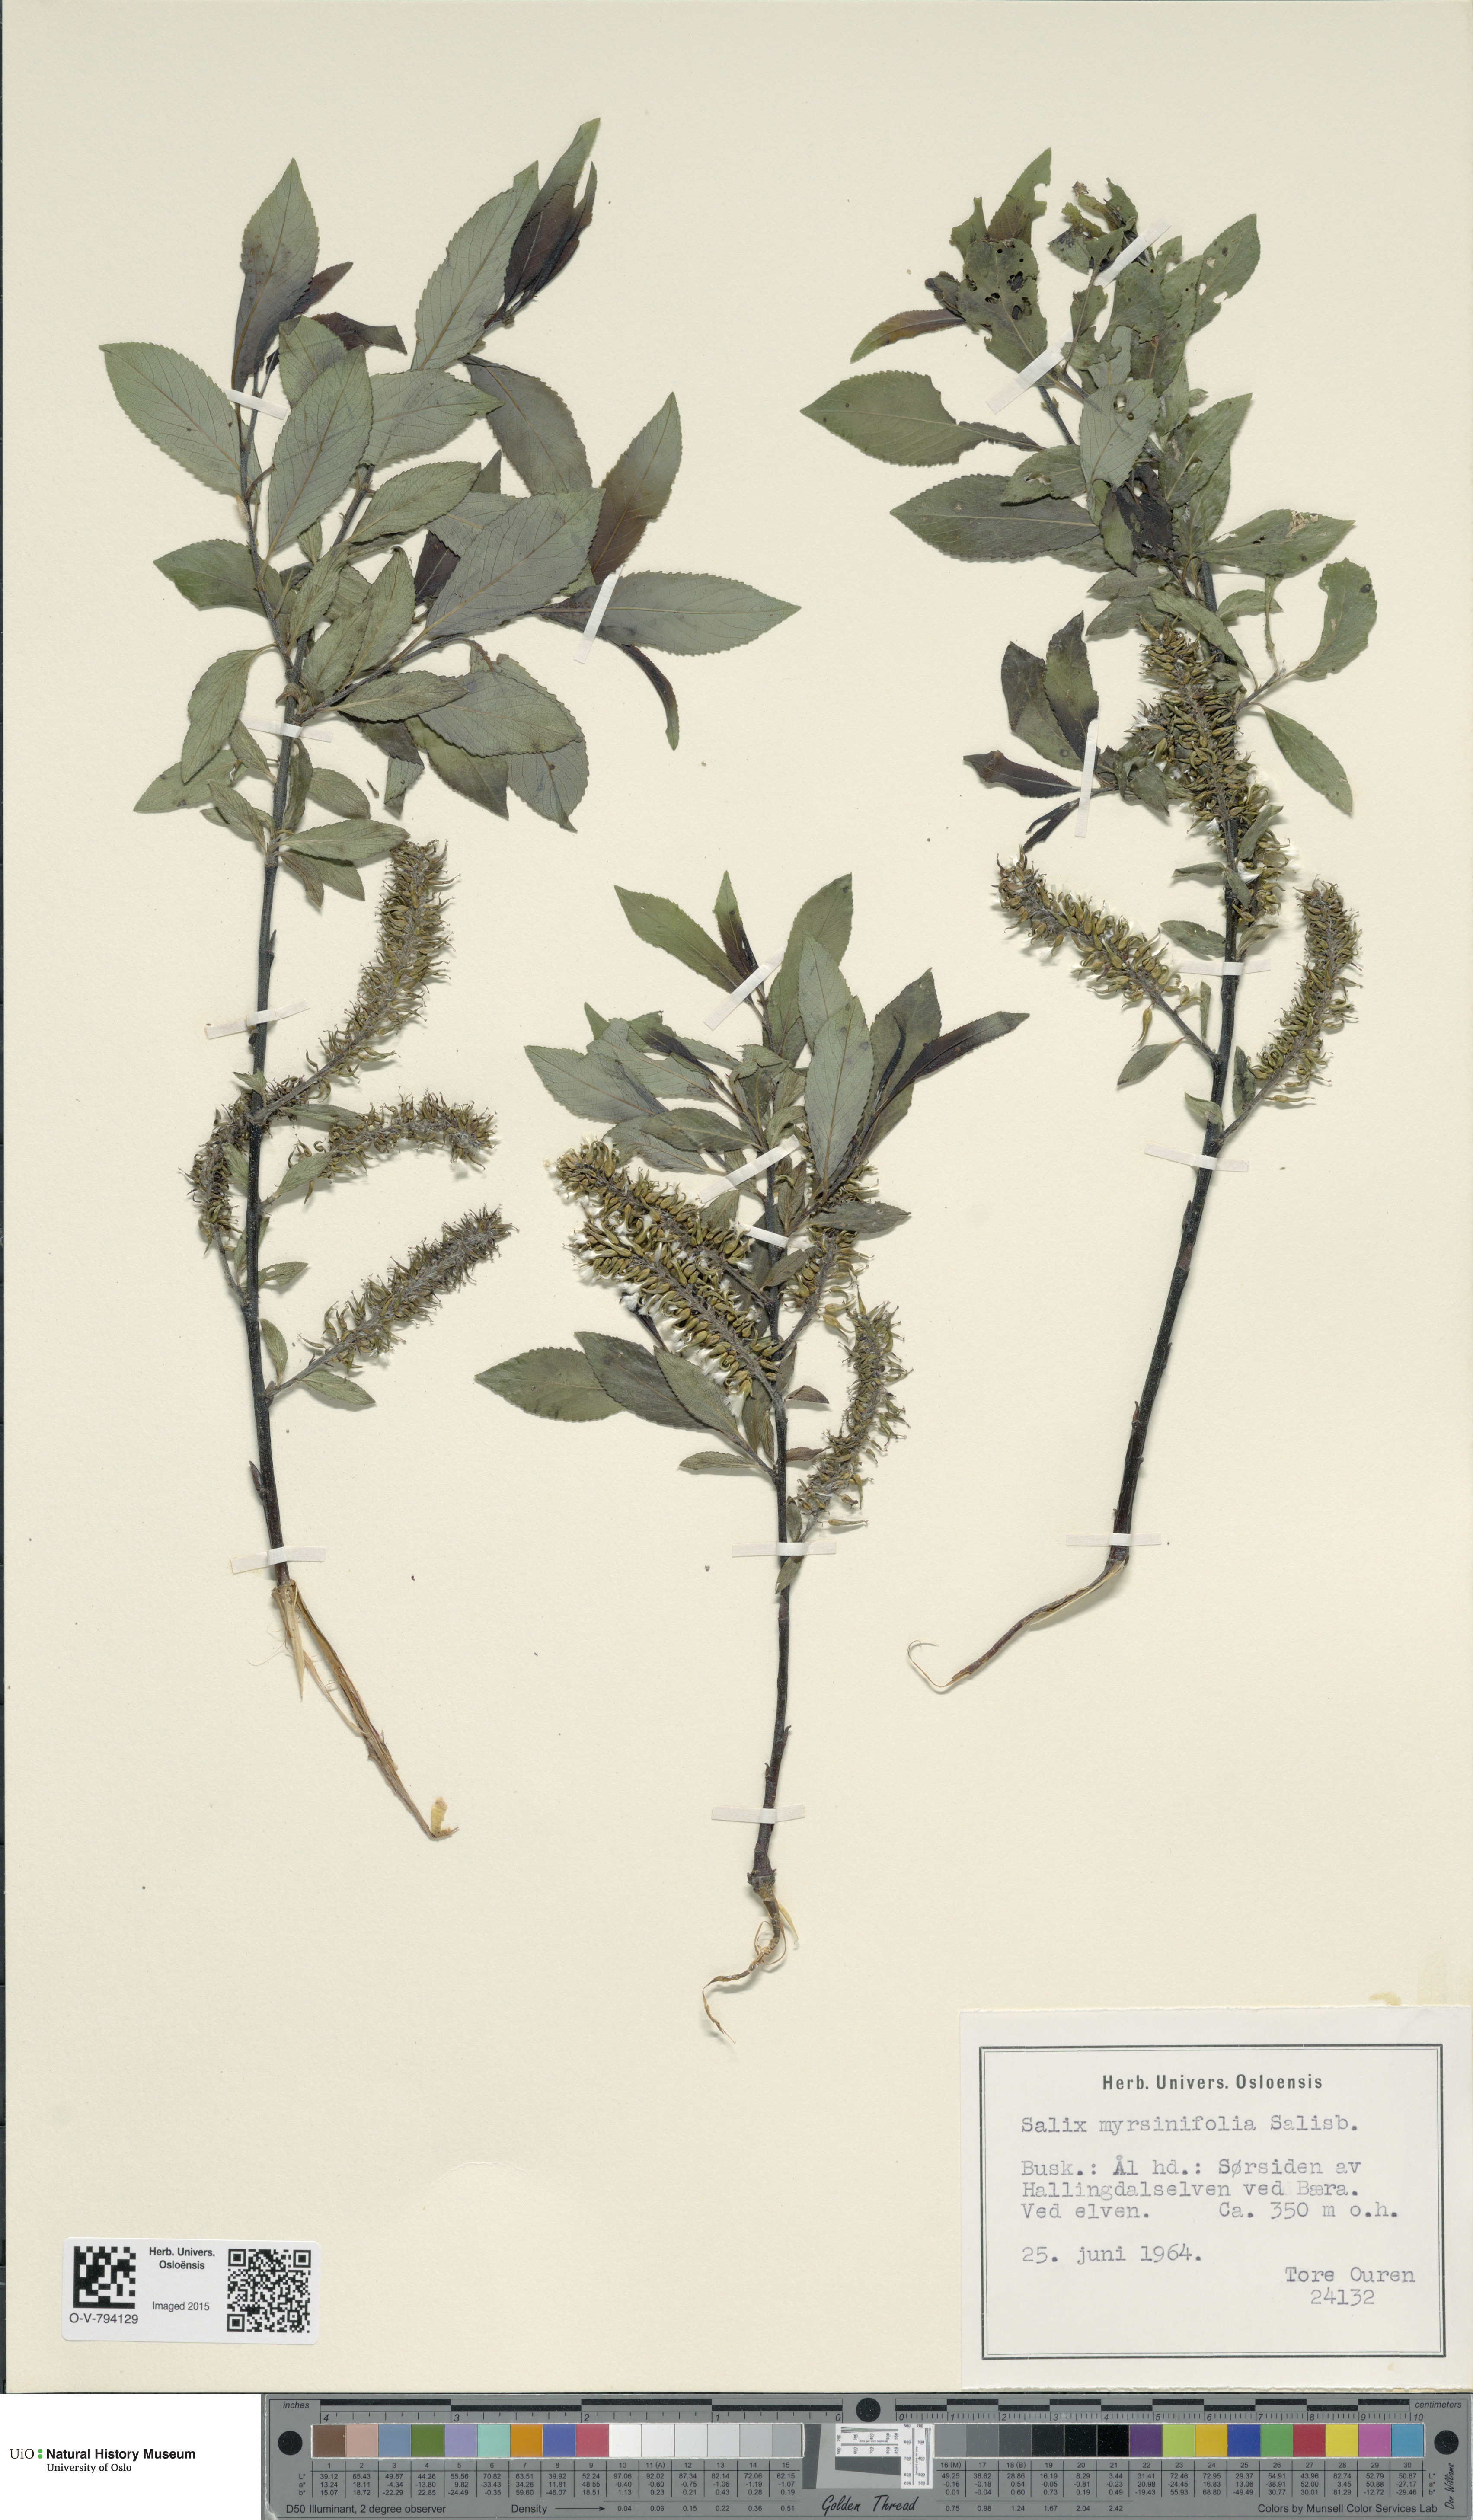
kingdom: Plantae
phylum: Tracheophyta
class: Magnoliopsida
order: Malpighiales
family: Salicaceae
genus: Salix
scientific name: Salix myrsinifolia
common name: Dark-leaved willow
